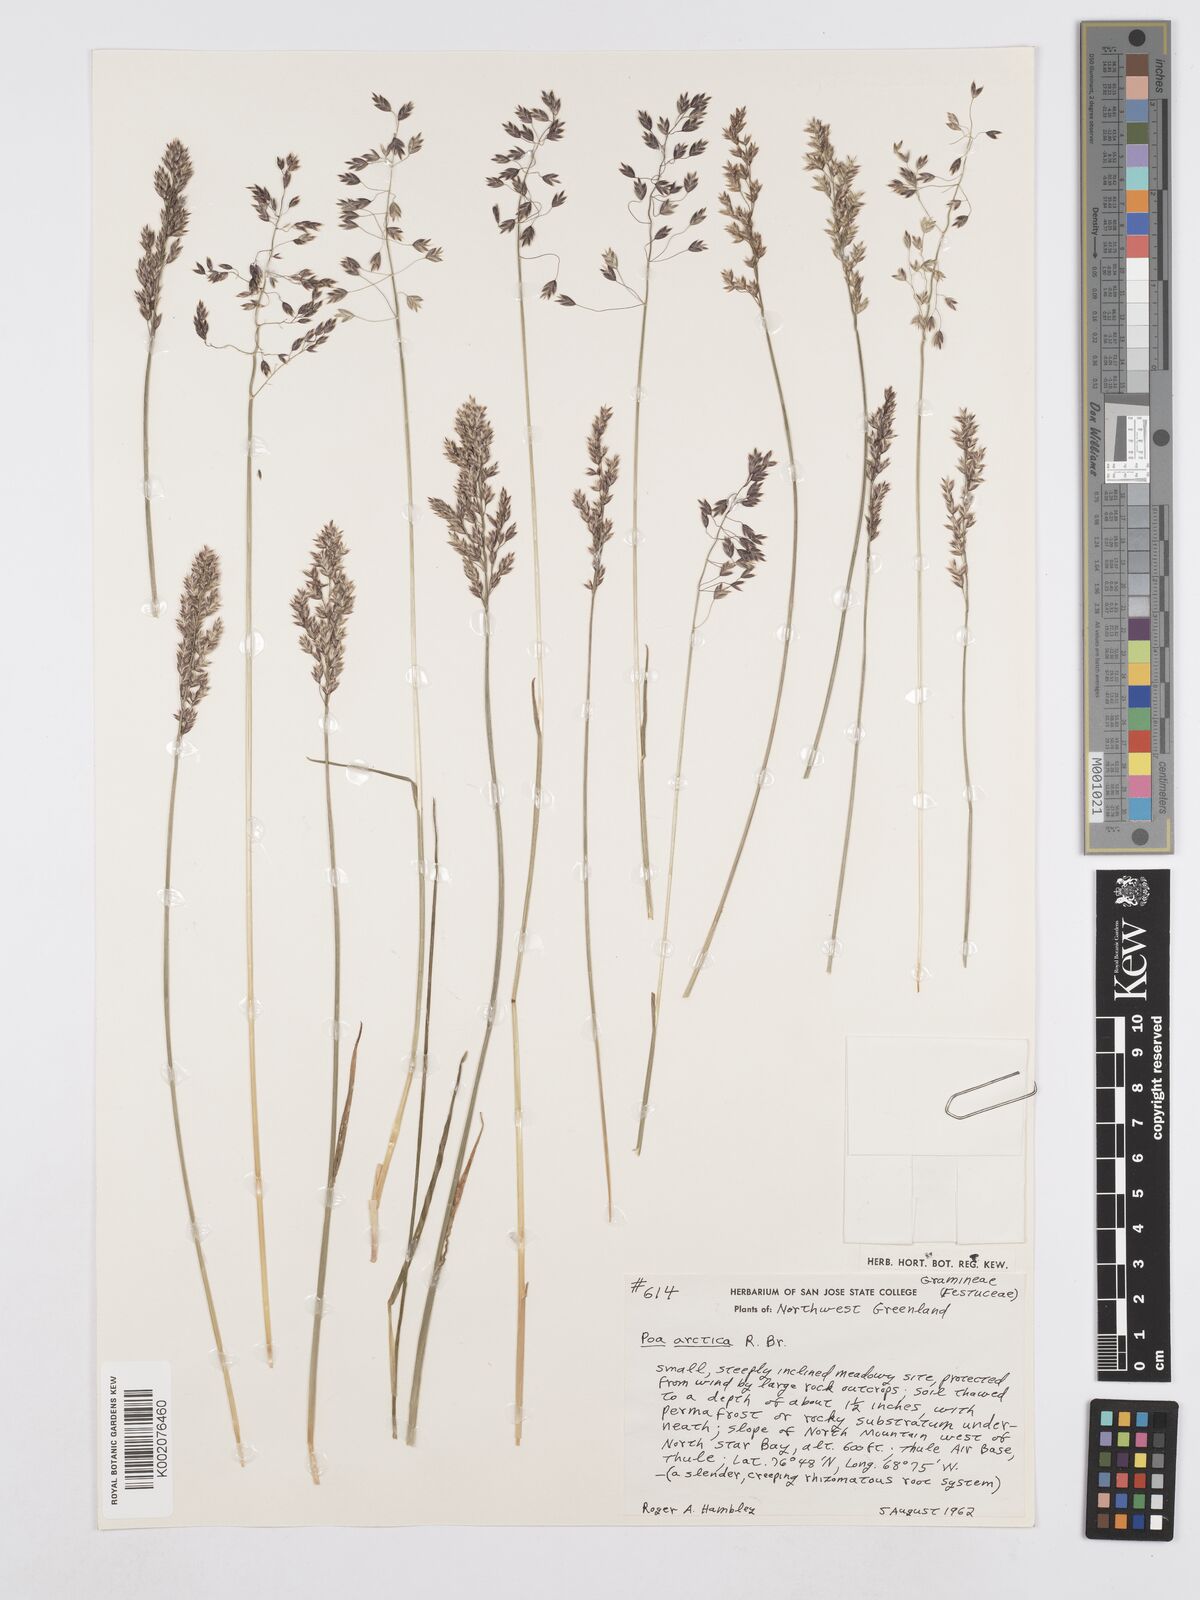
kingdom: Plantae
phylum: Tracheophyta
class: Liliopsida
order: Poales
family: Poaceae
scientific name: Poaceae
